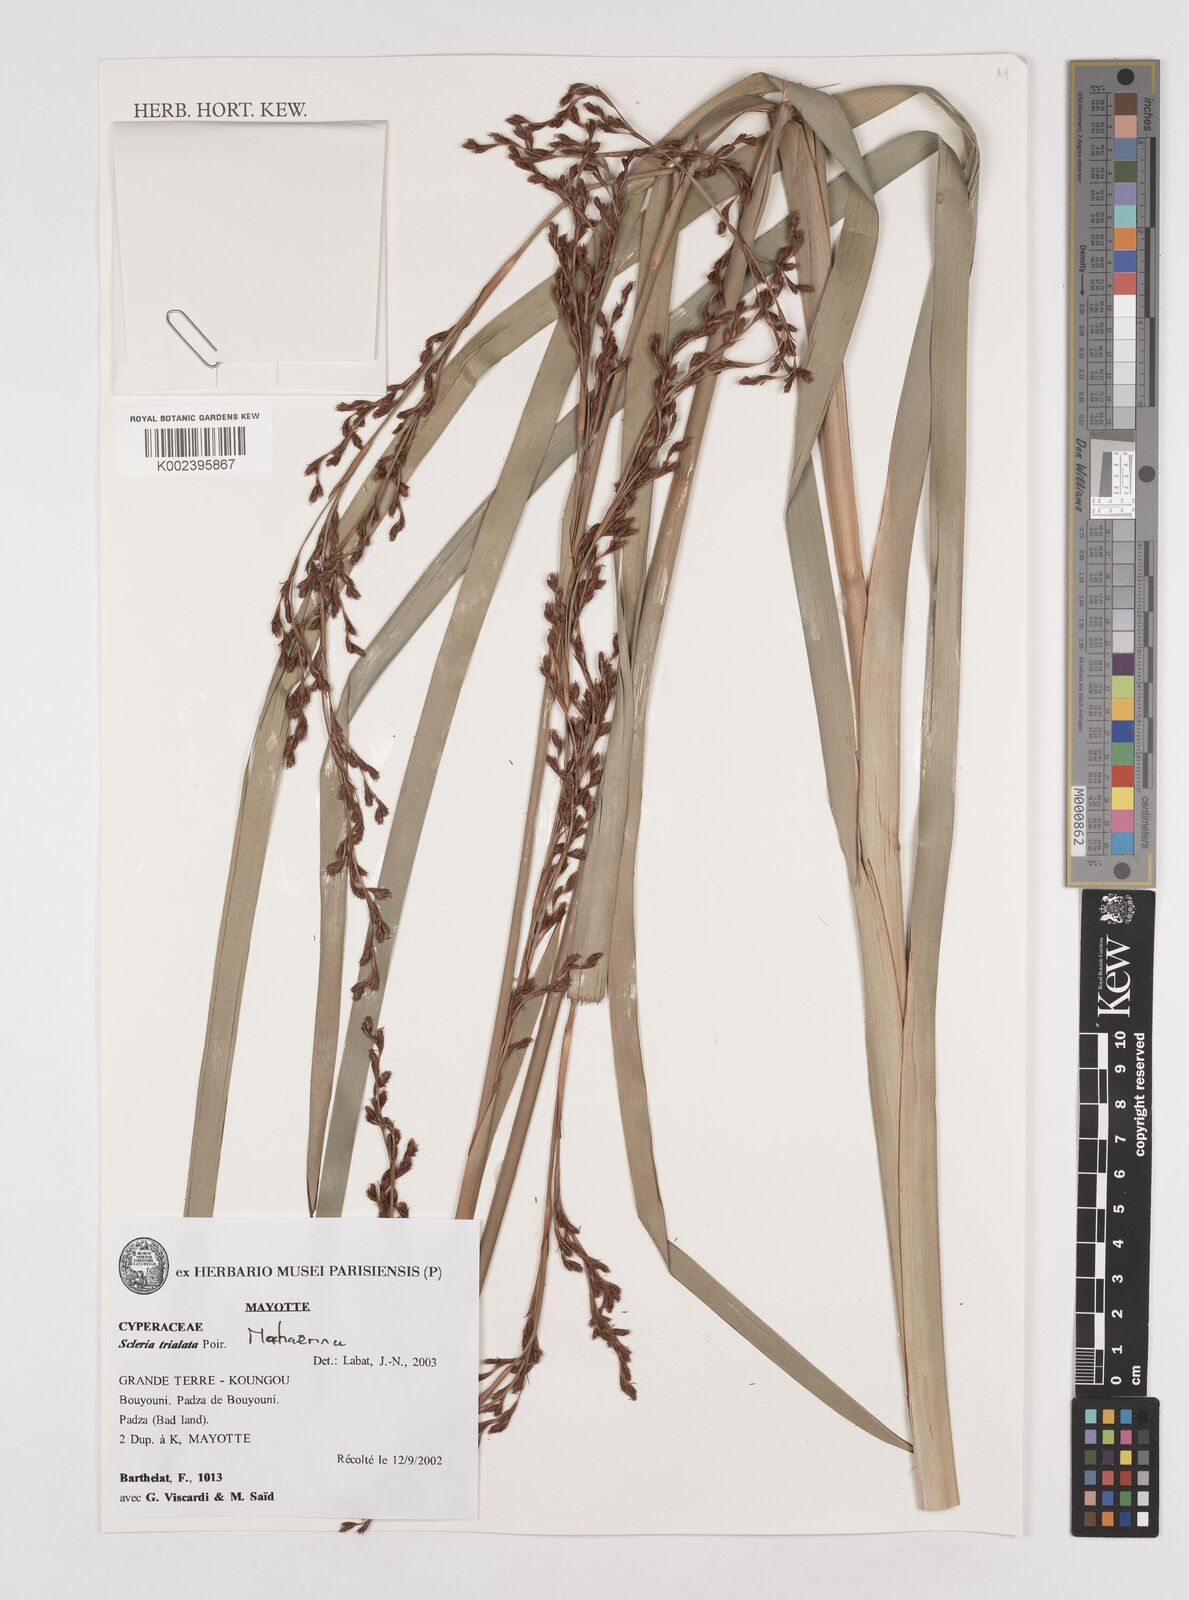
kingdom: Plantae
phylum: Tracheophyta
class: Liliopsida
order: Poales
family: Cyperaceae
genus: Machaerina
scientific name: Machaerina
